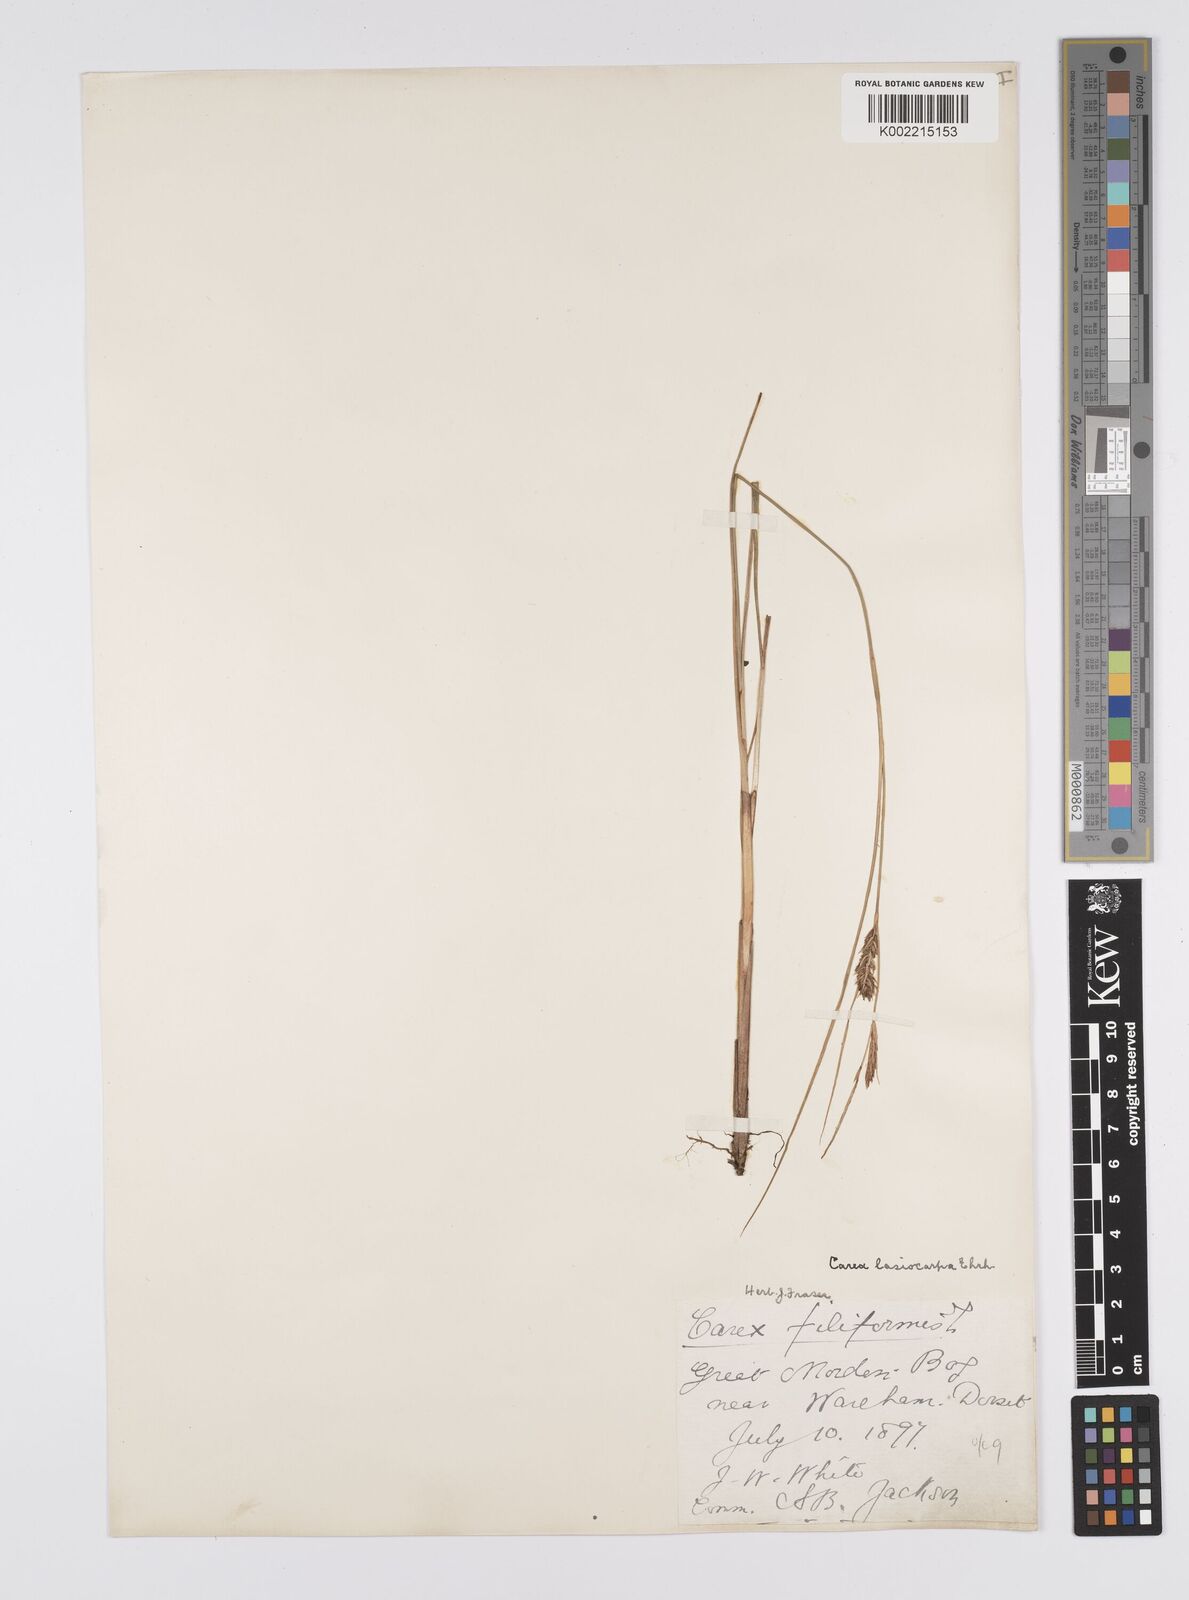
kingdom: Plantae
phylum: Tracheophyta
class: Liliopsida
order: Poales
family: Cyperaceae
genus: Carex
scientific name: Carex lasiocarpa
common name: Slender sedge
